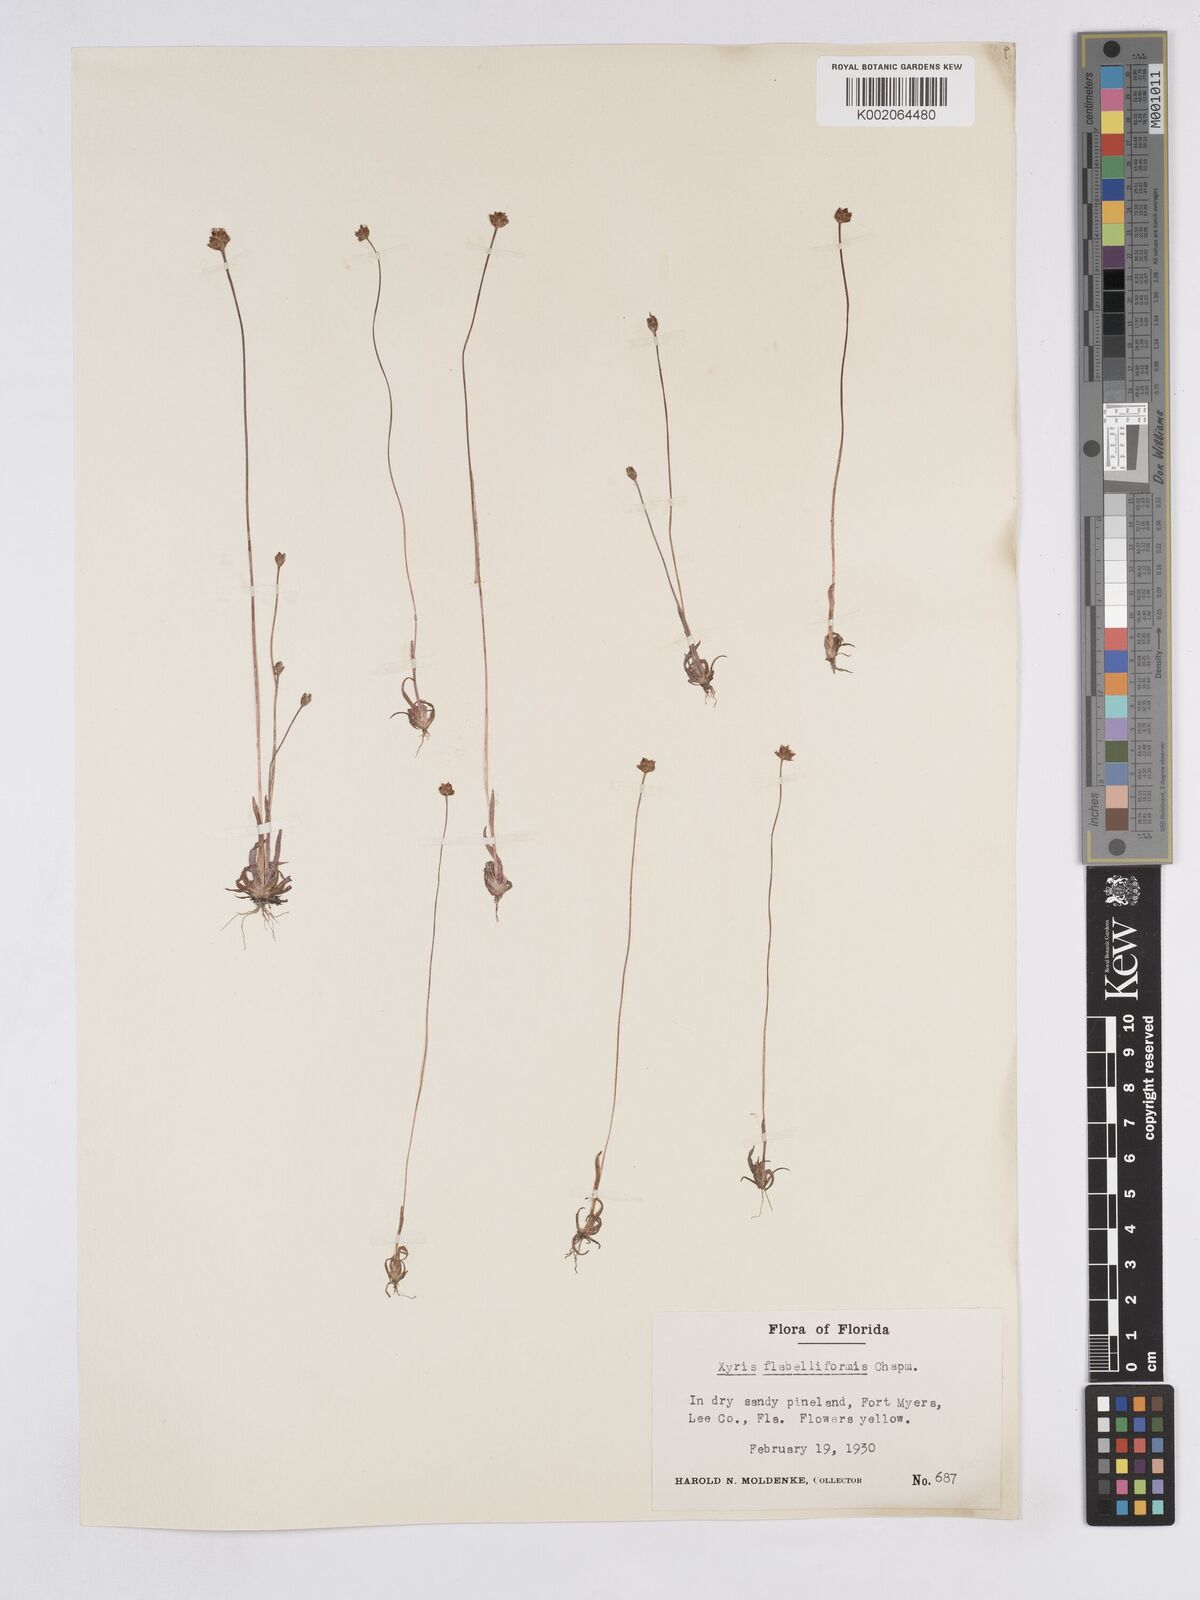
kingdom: Plantae
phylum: Tracheophyta
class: Liliopsida
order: Poales
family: Xyridaceae
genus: Xyris
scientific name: Xyris flabelliformis
